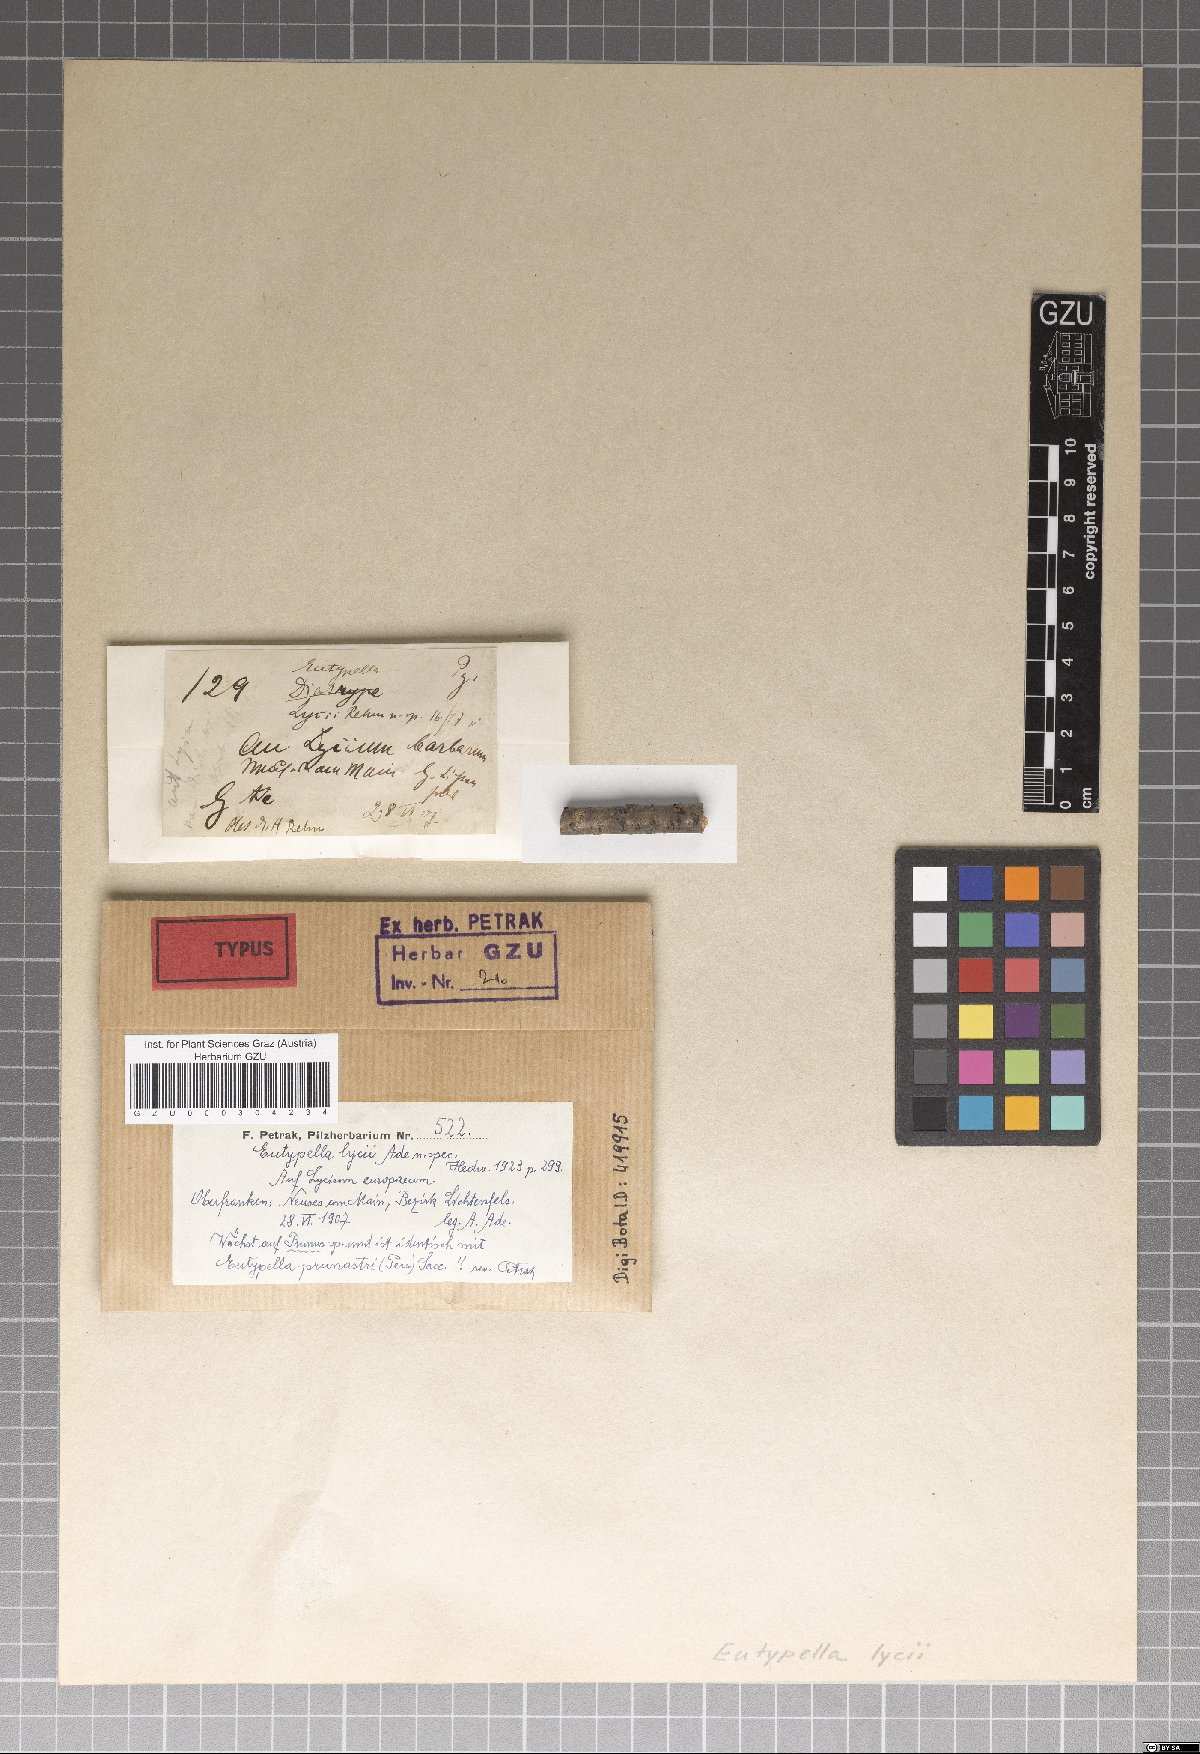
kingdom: Fungi
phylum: Ascomycota
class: Sordariomycetes
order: Xylariales
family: Diatrypaceae
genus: Eutypella
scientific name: Eutypella lycii
